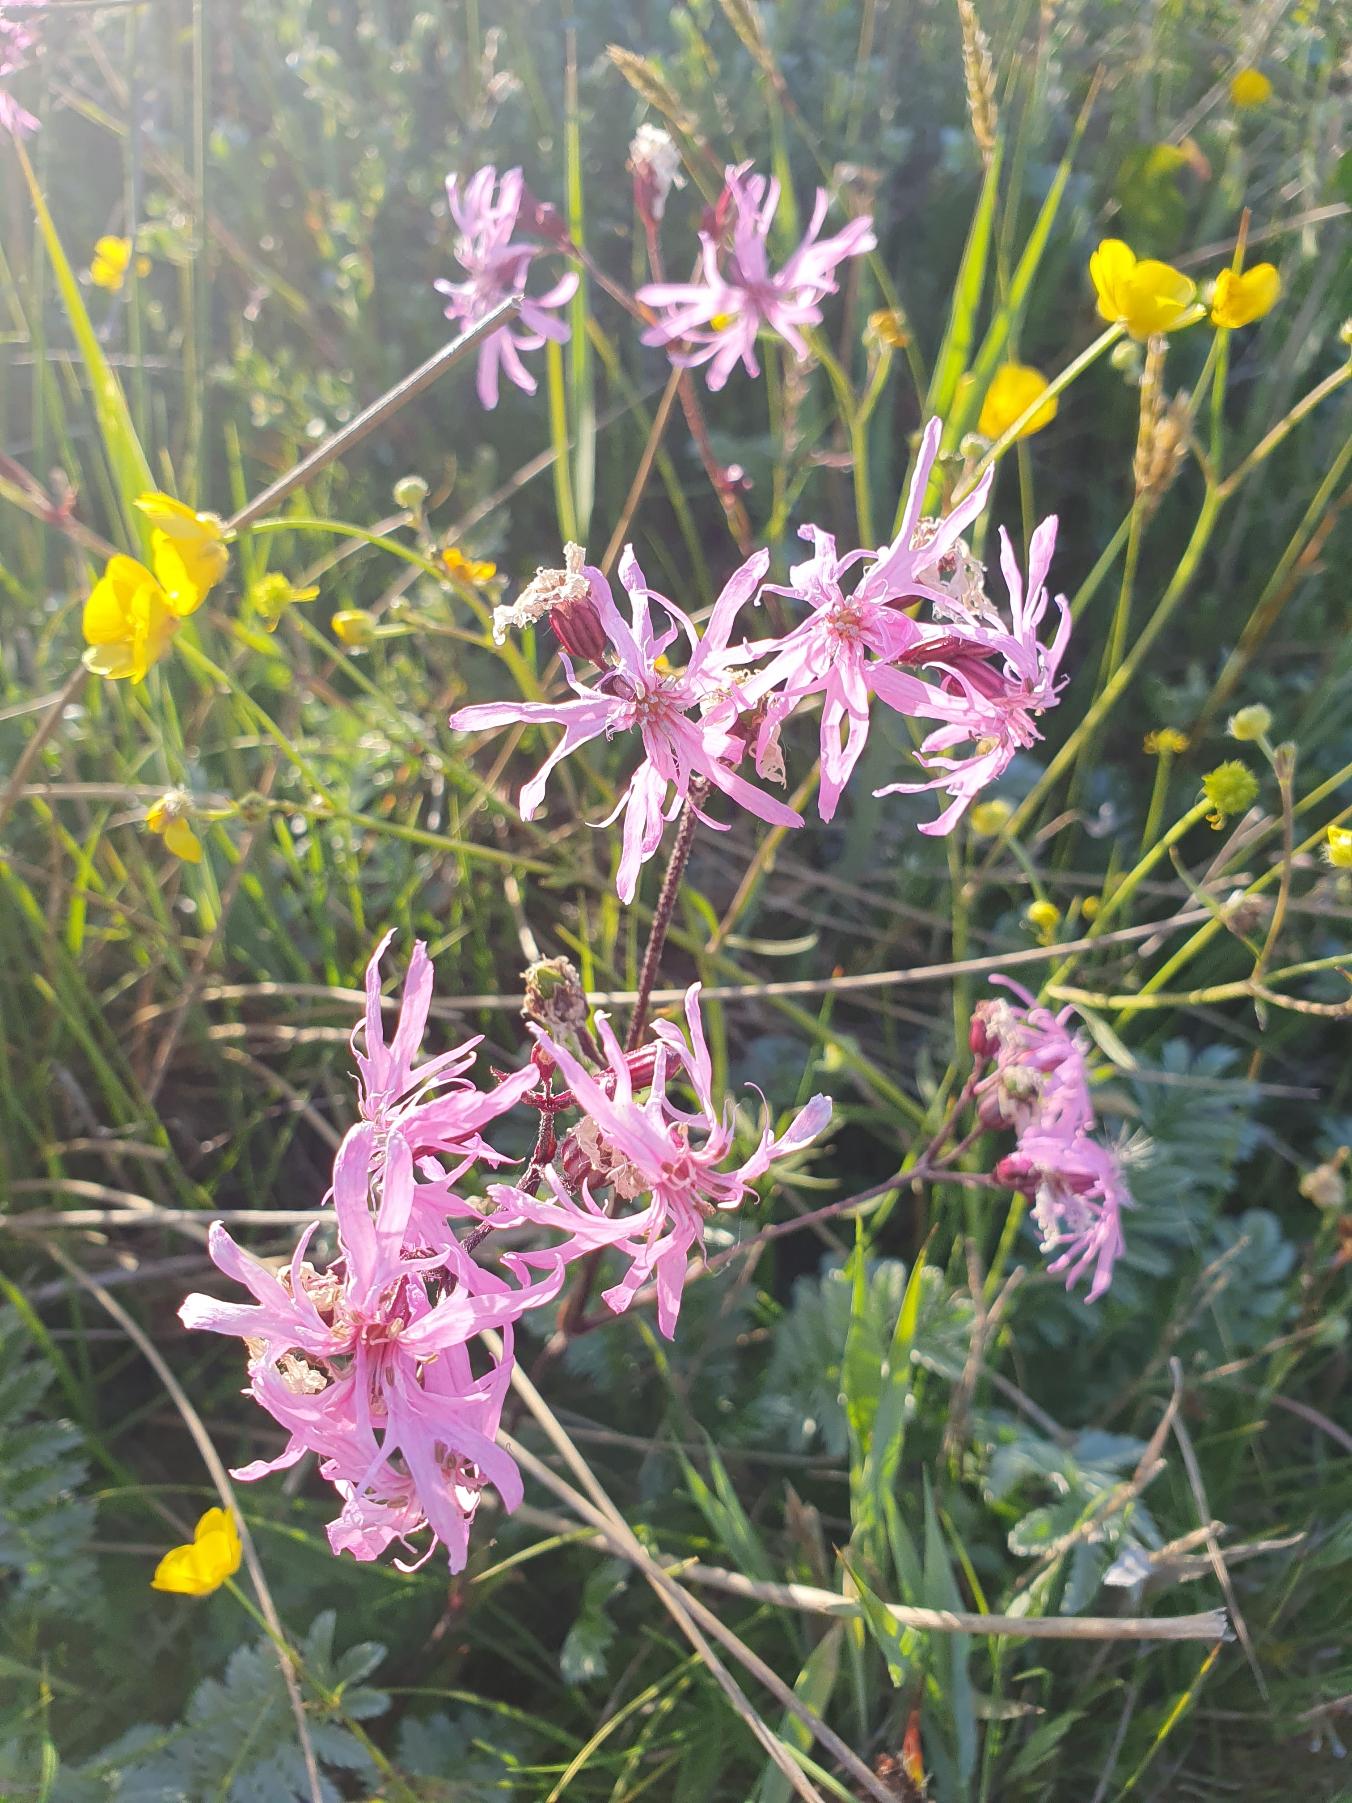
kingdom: Plantae
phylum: Tracheophyta
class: Magnoliopsida
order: Caryophyllales
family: Caryophyllaceae
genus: Silene
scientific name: Silene flos-cuculi
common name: Trævlekrone
